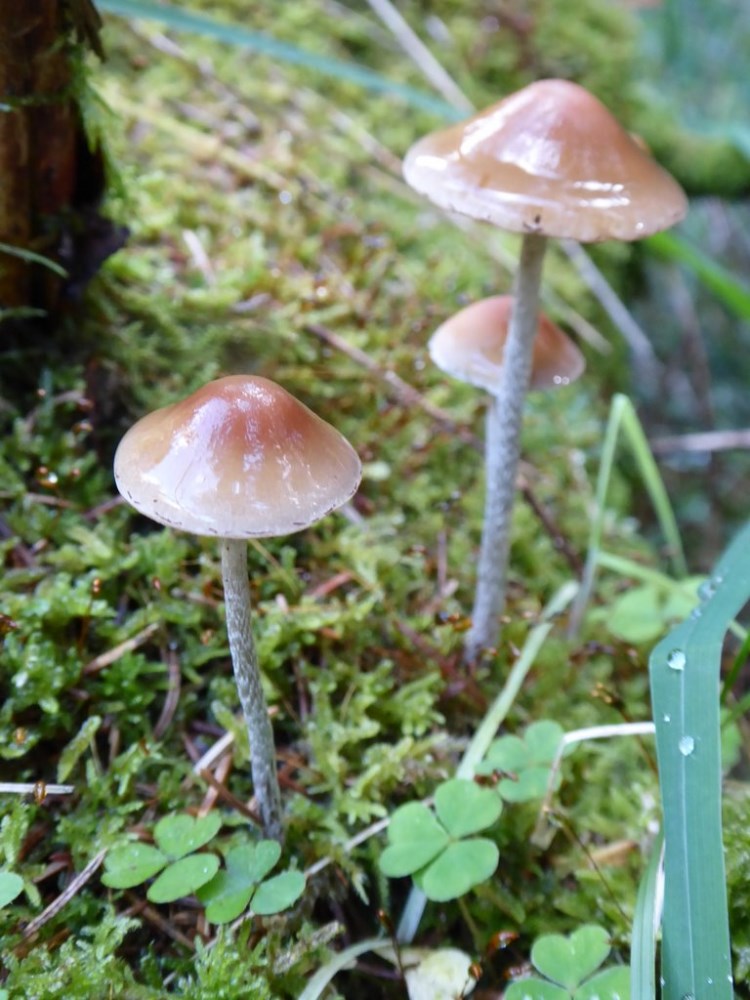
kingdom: Fungi
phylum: Basidiomycota
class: Agaricomycetes
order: Agaricales
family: Strophariaceae
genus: Hypholoma
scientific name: Hypholoma marginatum
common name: enlig svovlhat
